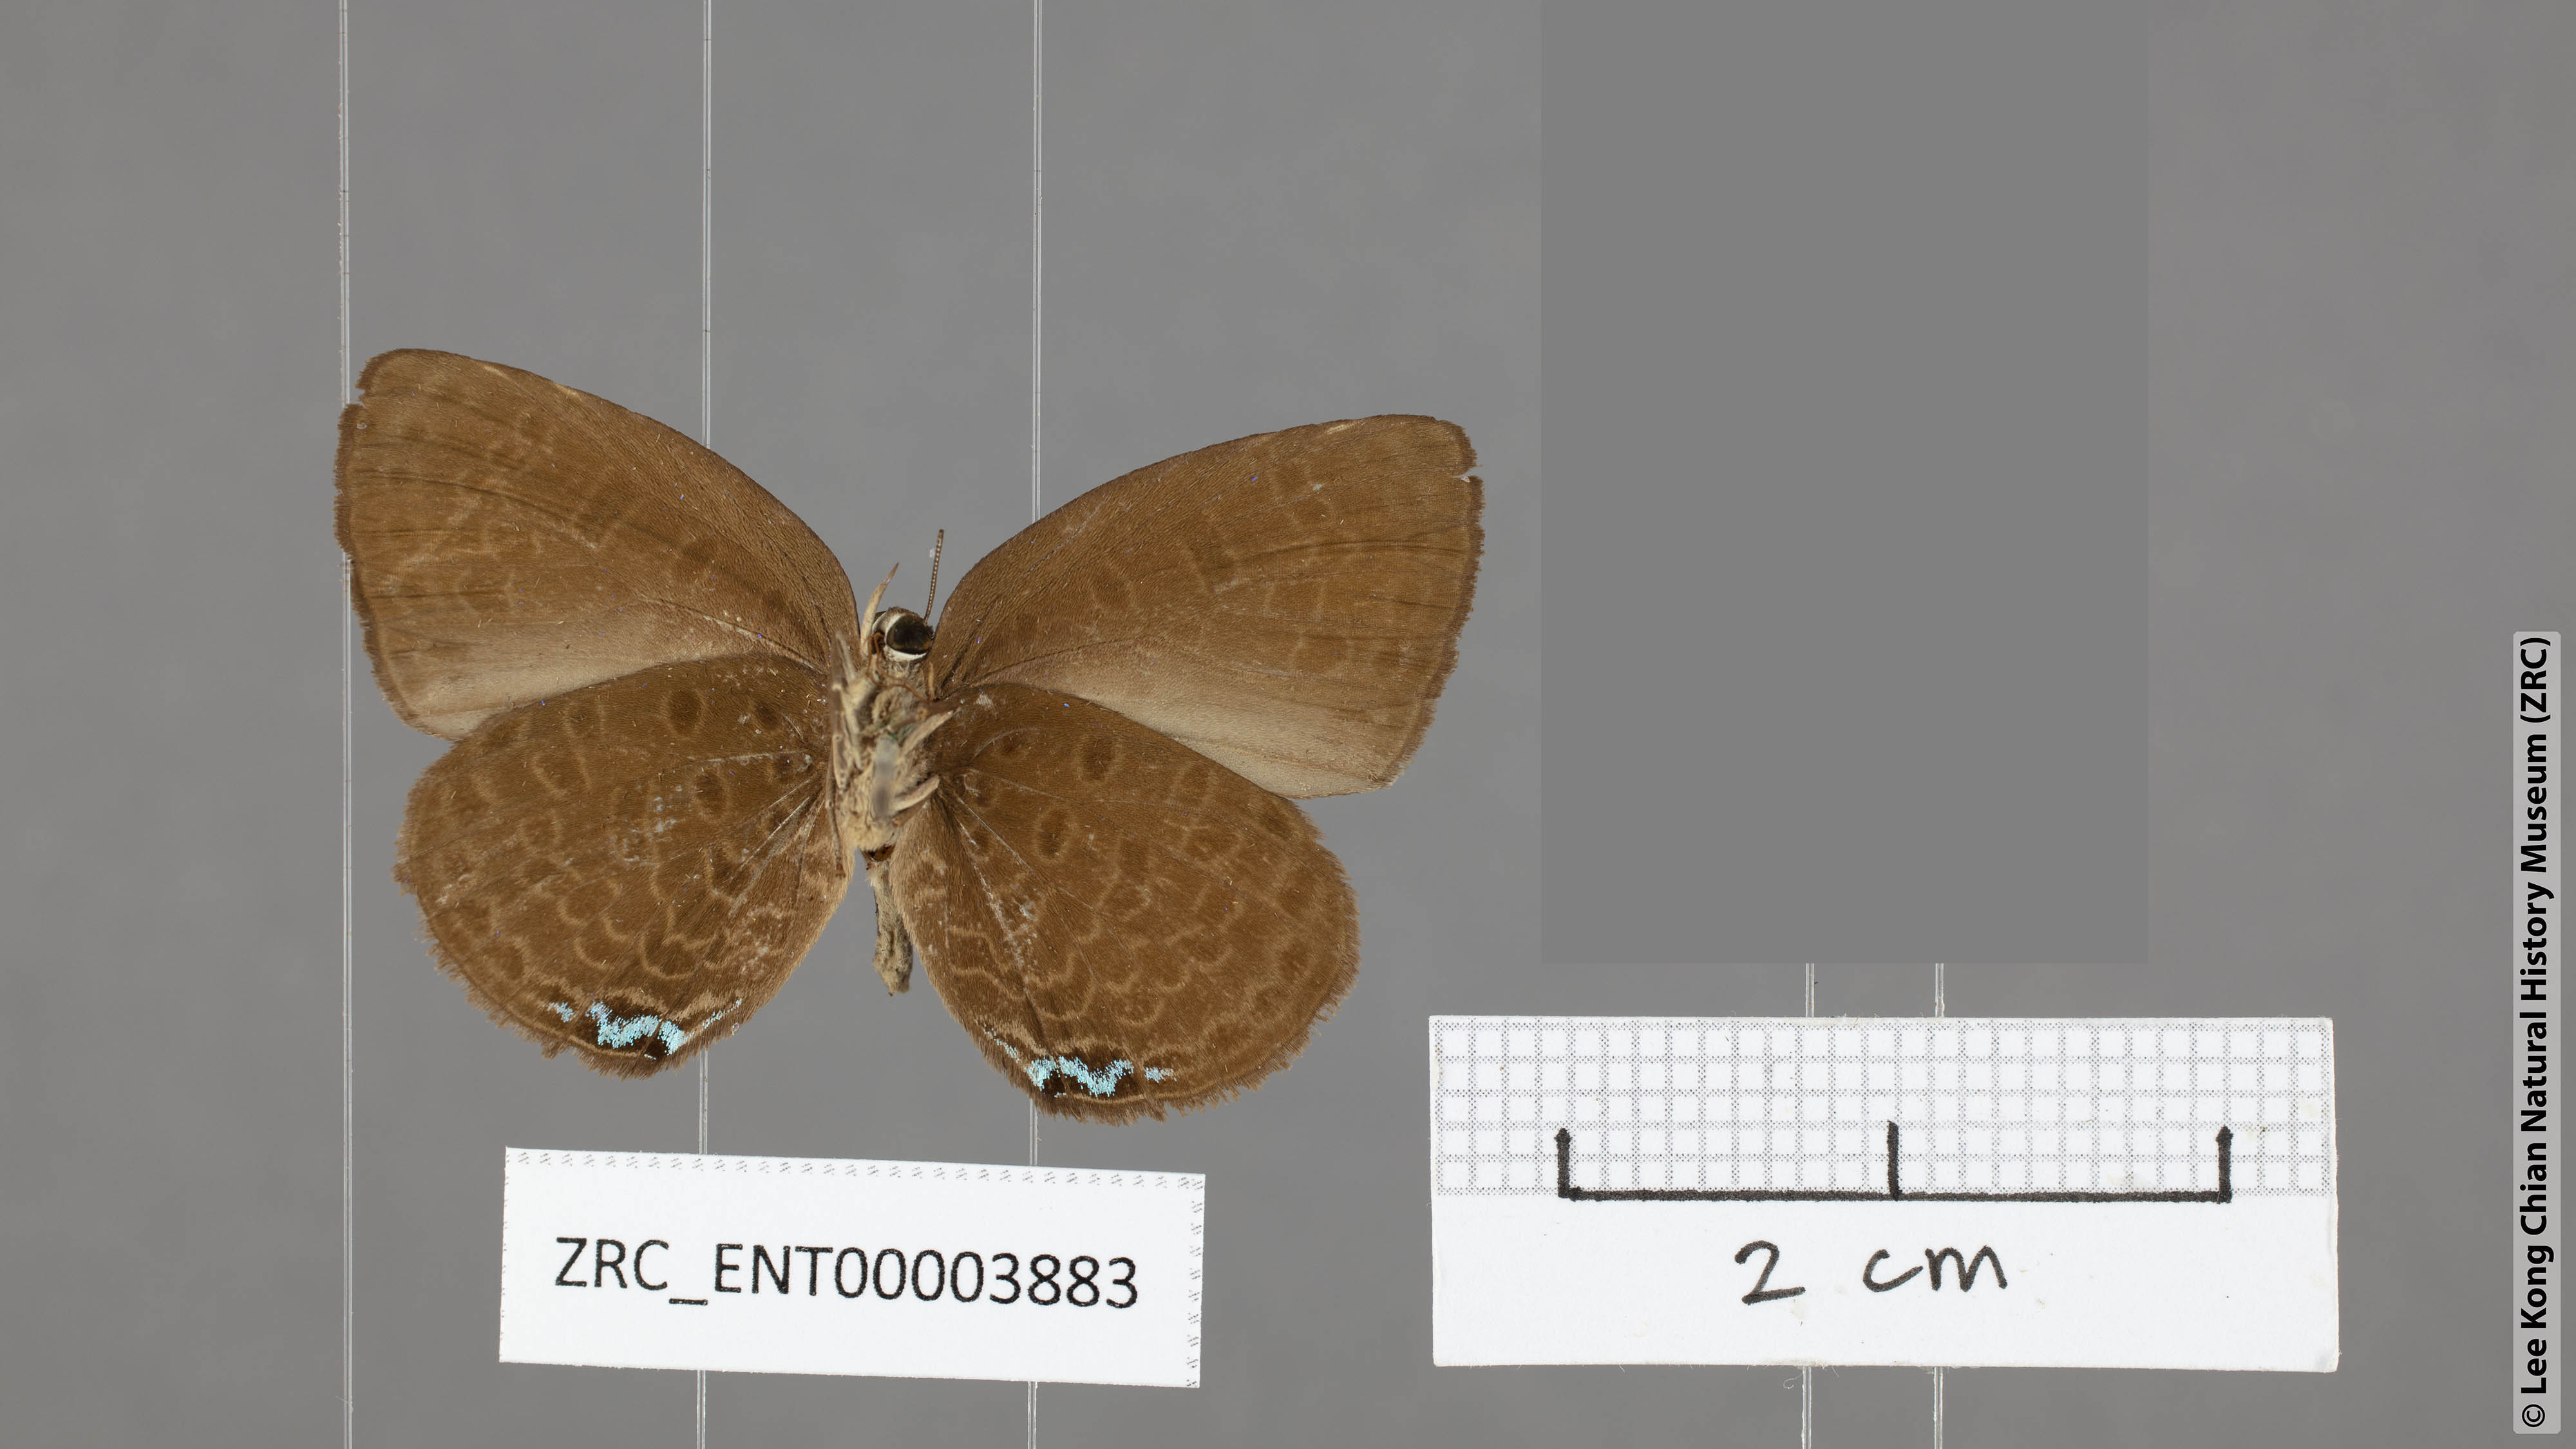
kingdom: Animalia
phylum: Arthropoda
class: Insecta
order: Lepidoptera
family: Lycaenidae
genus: Arhopala
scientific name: Arhopala avathina
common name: Lunulate yellow oakblue
